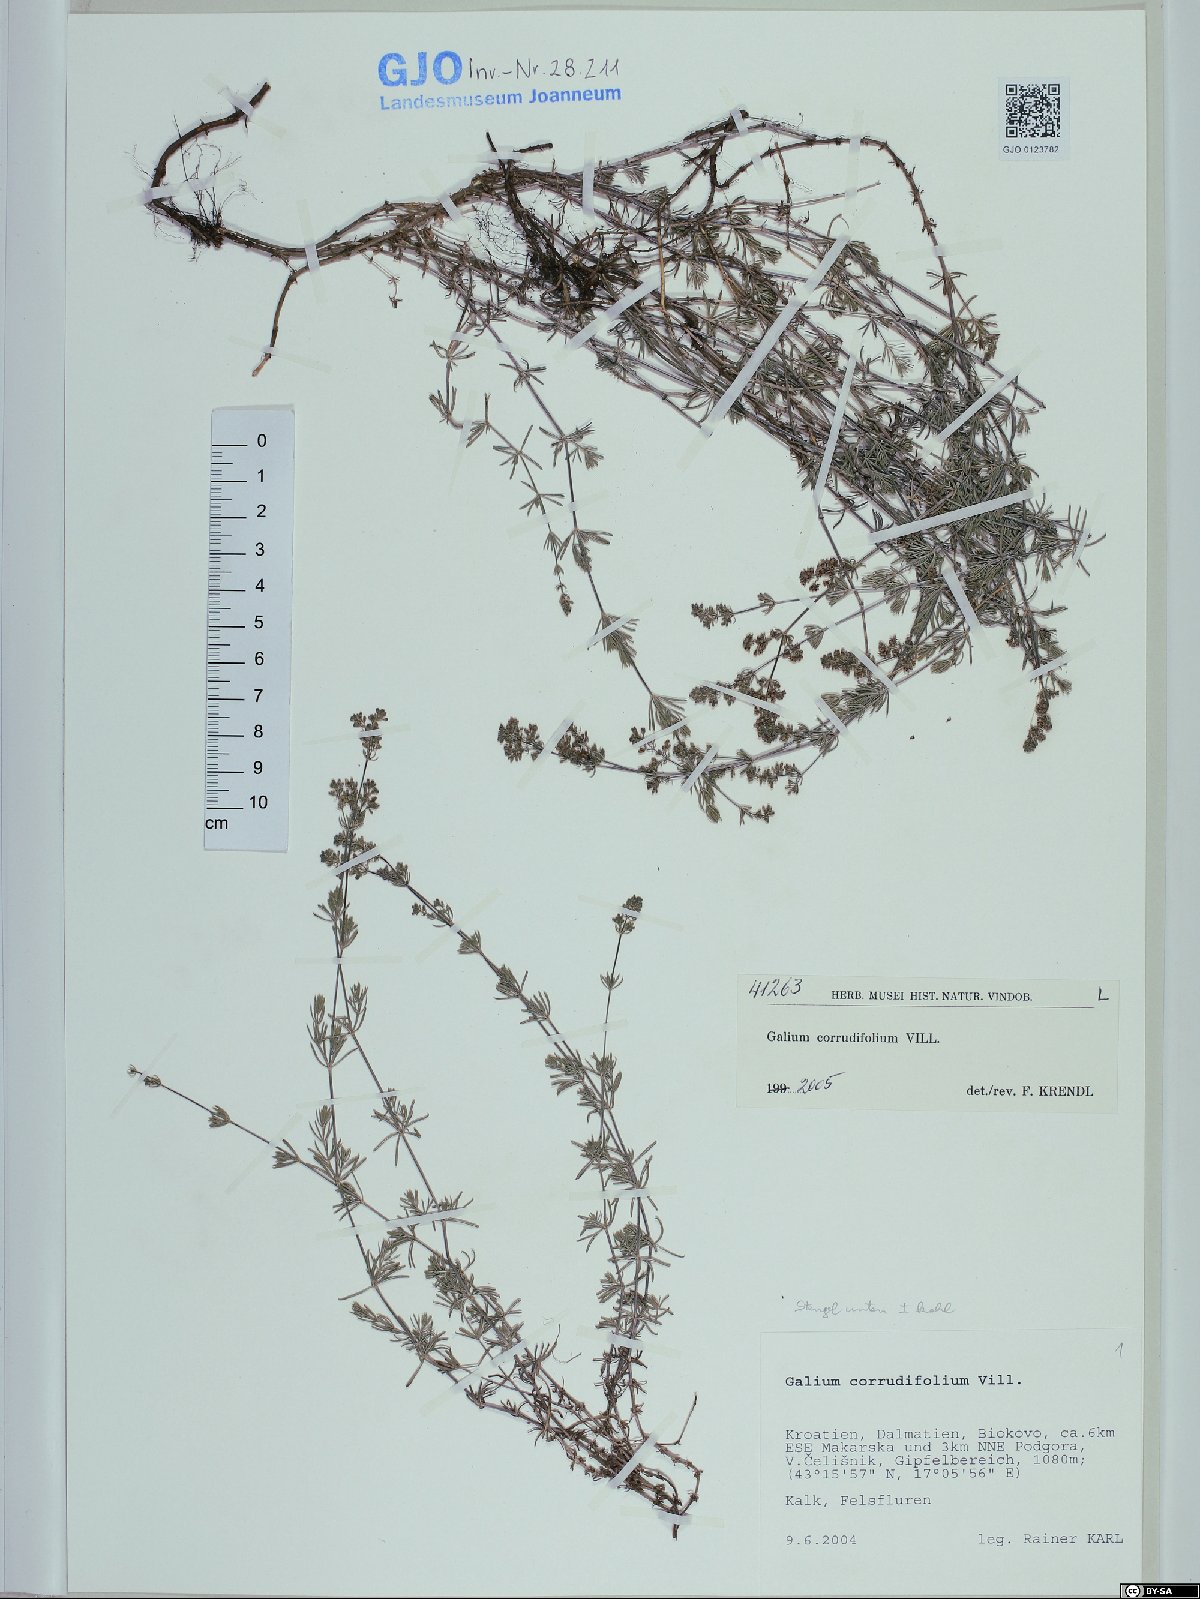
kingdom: Plantae
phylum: Tracheophyta
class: Magnoliopsida
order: Gentianales
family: Rubiaceae
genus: Galium
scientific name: Galium lucidum
